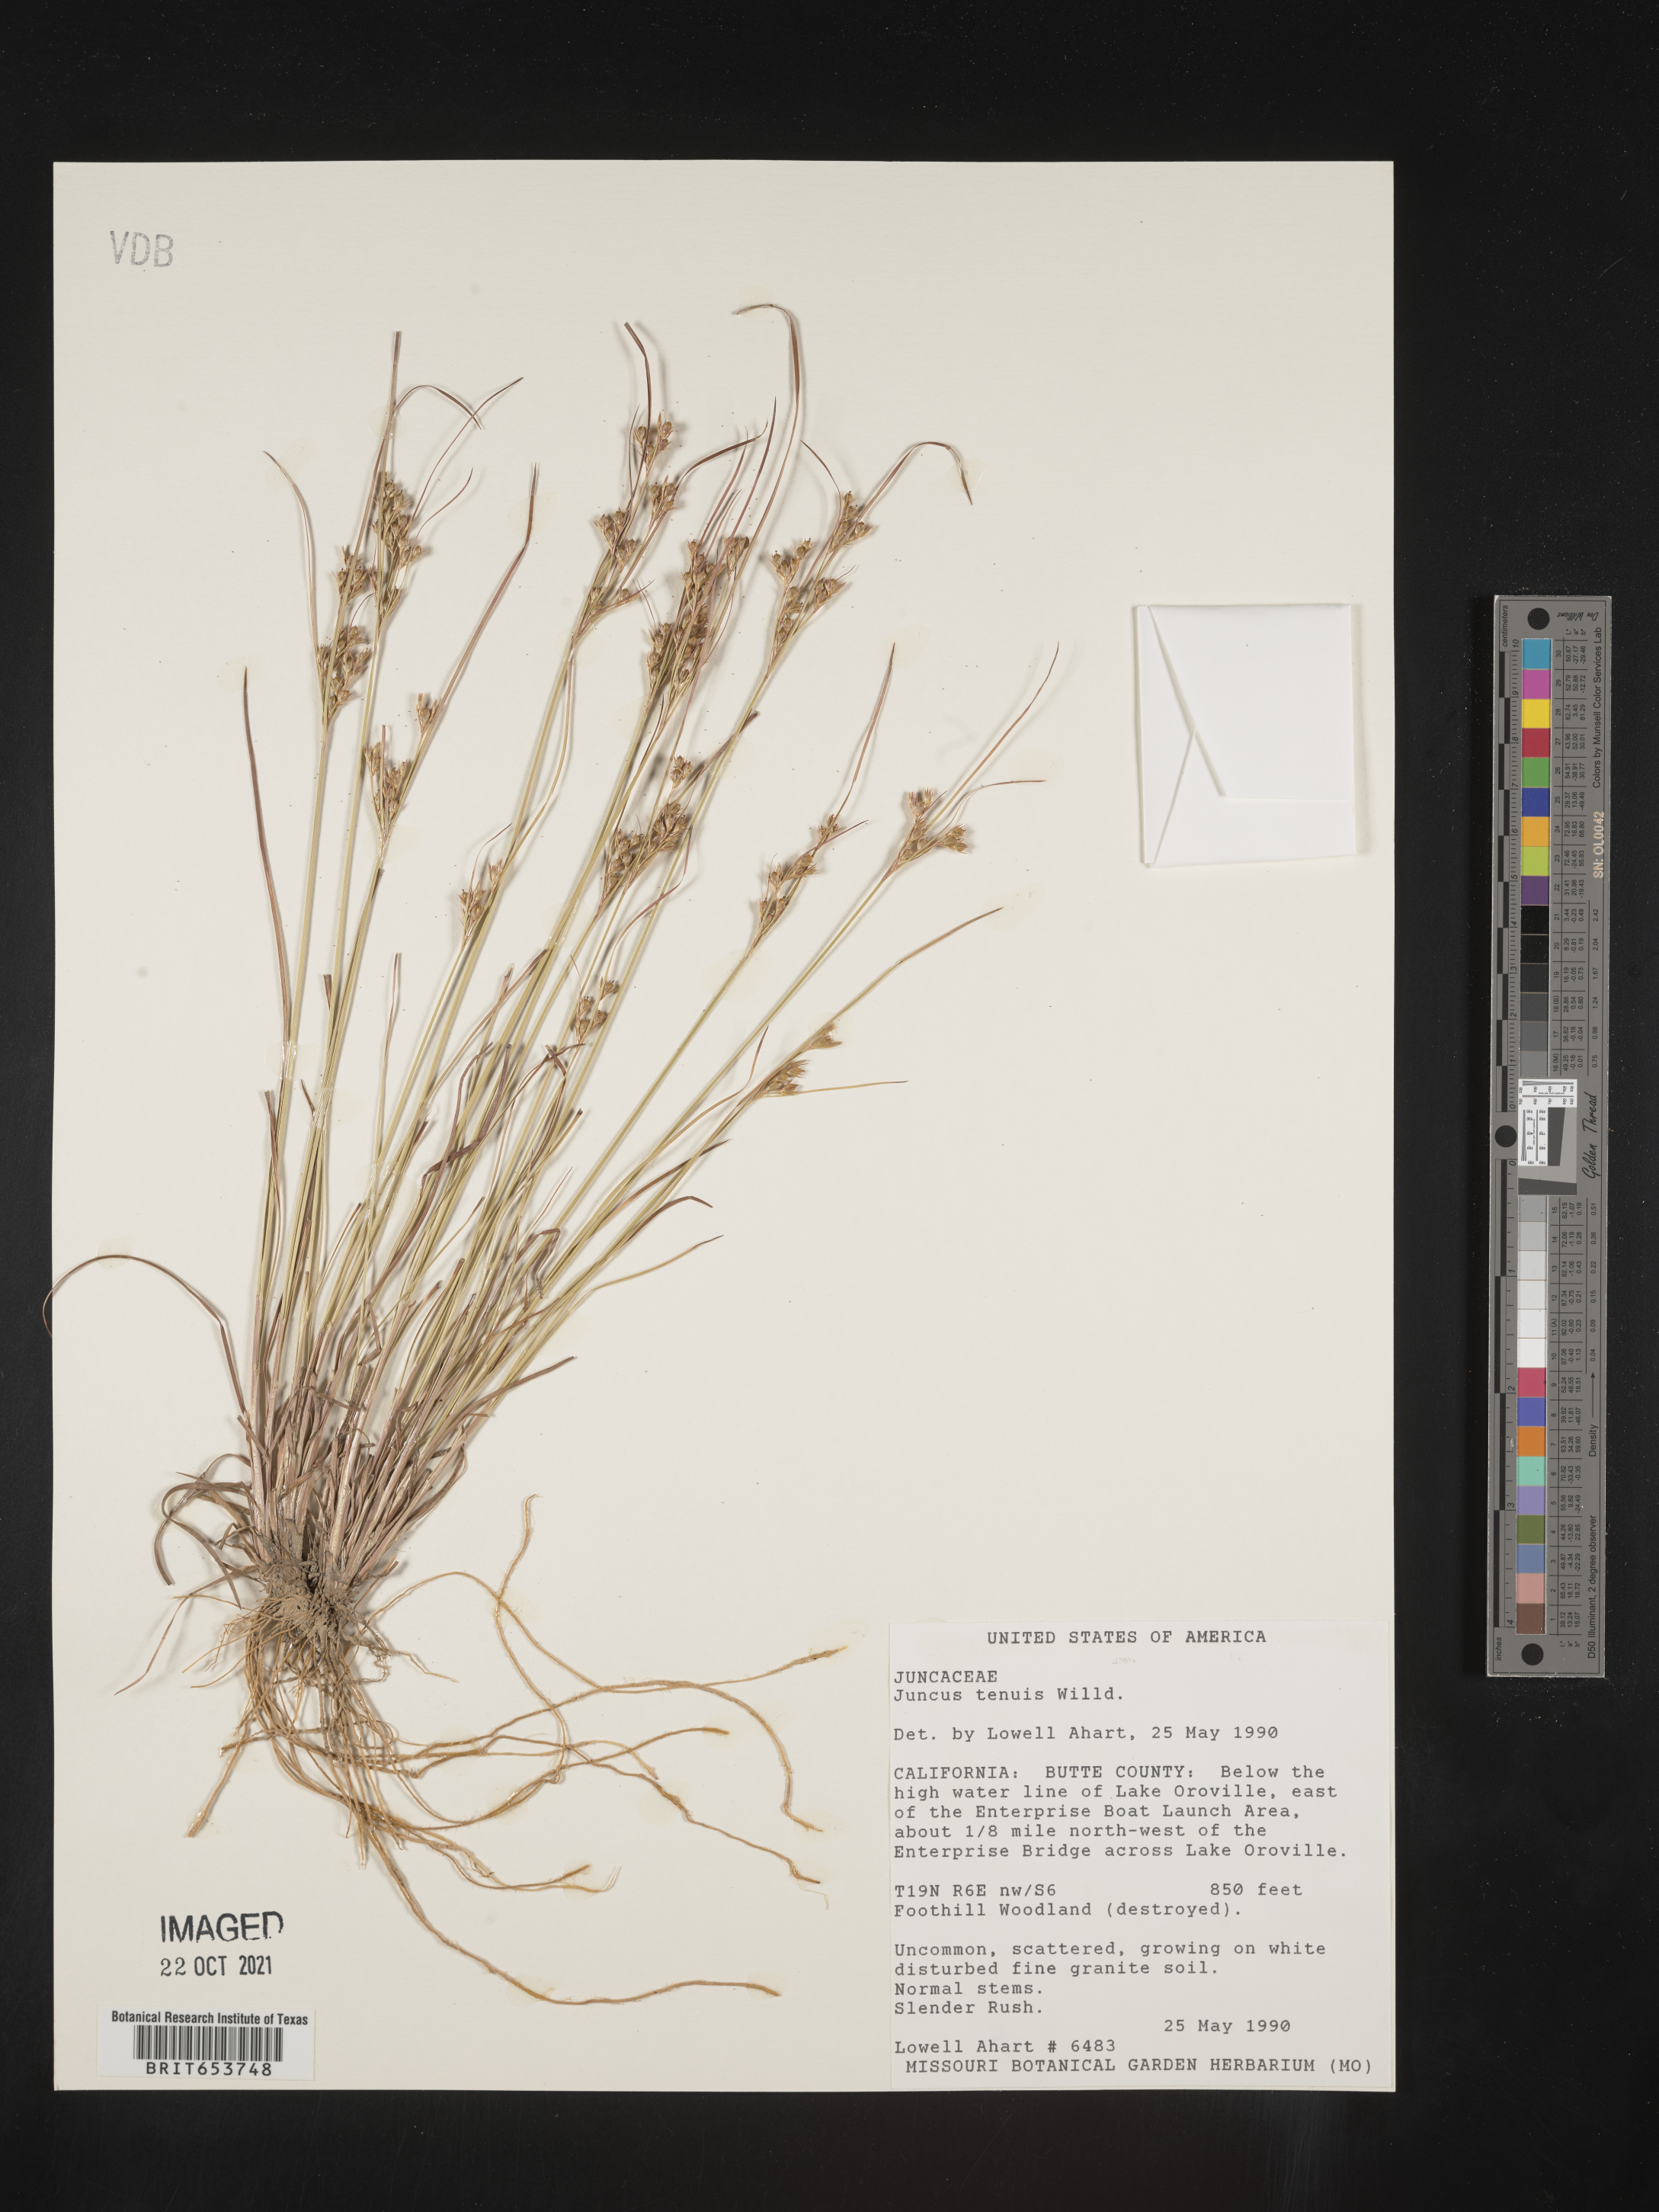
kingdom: Plantae
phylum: Tracheophyta
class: Liliopsida
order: Poales
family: Juncaceae
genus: Juncus
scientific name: Juncus tenuis
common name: Slender rush
